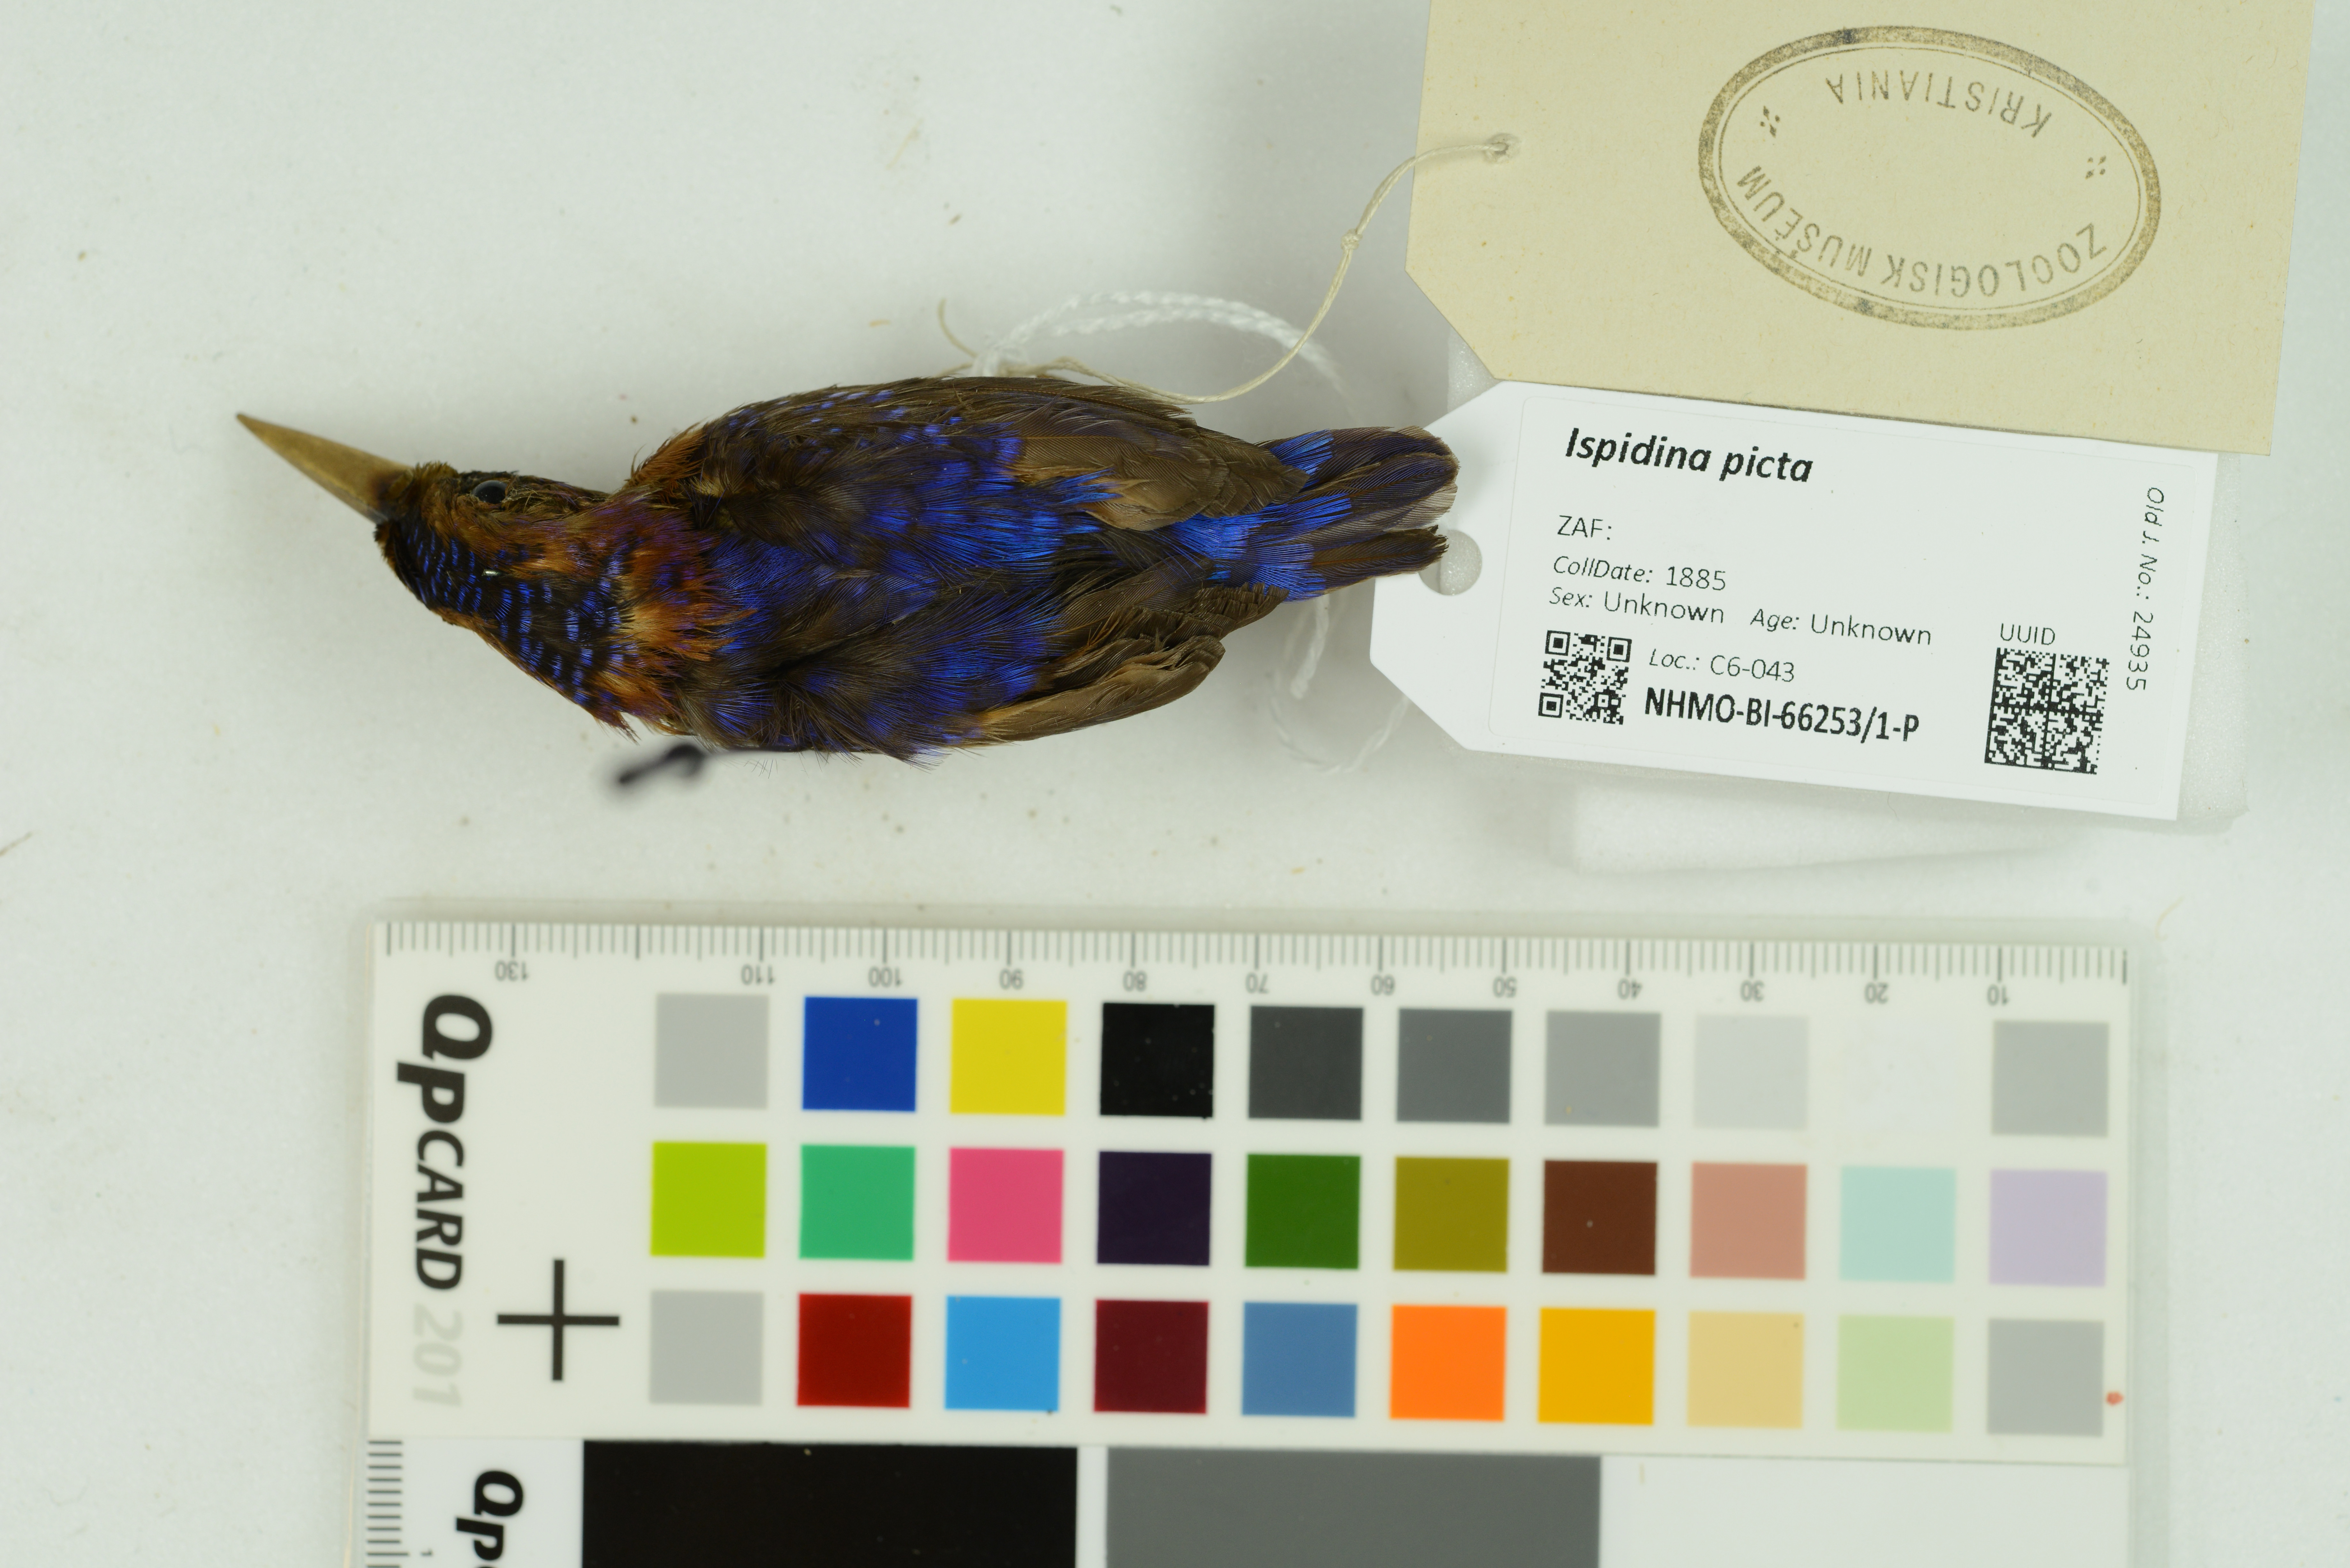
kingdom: Animalia
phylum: Chordata
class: Aves
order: Coraciiformes
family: Alcedinidae
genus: Ispidina
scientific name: Ispidina picta
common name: African pygmy-kingfisher
